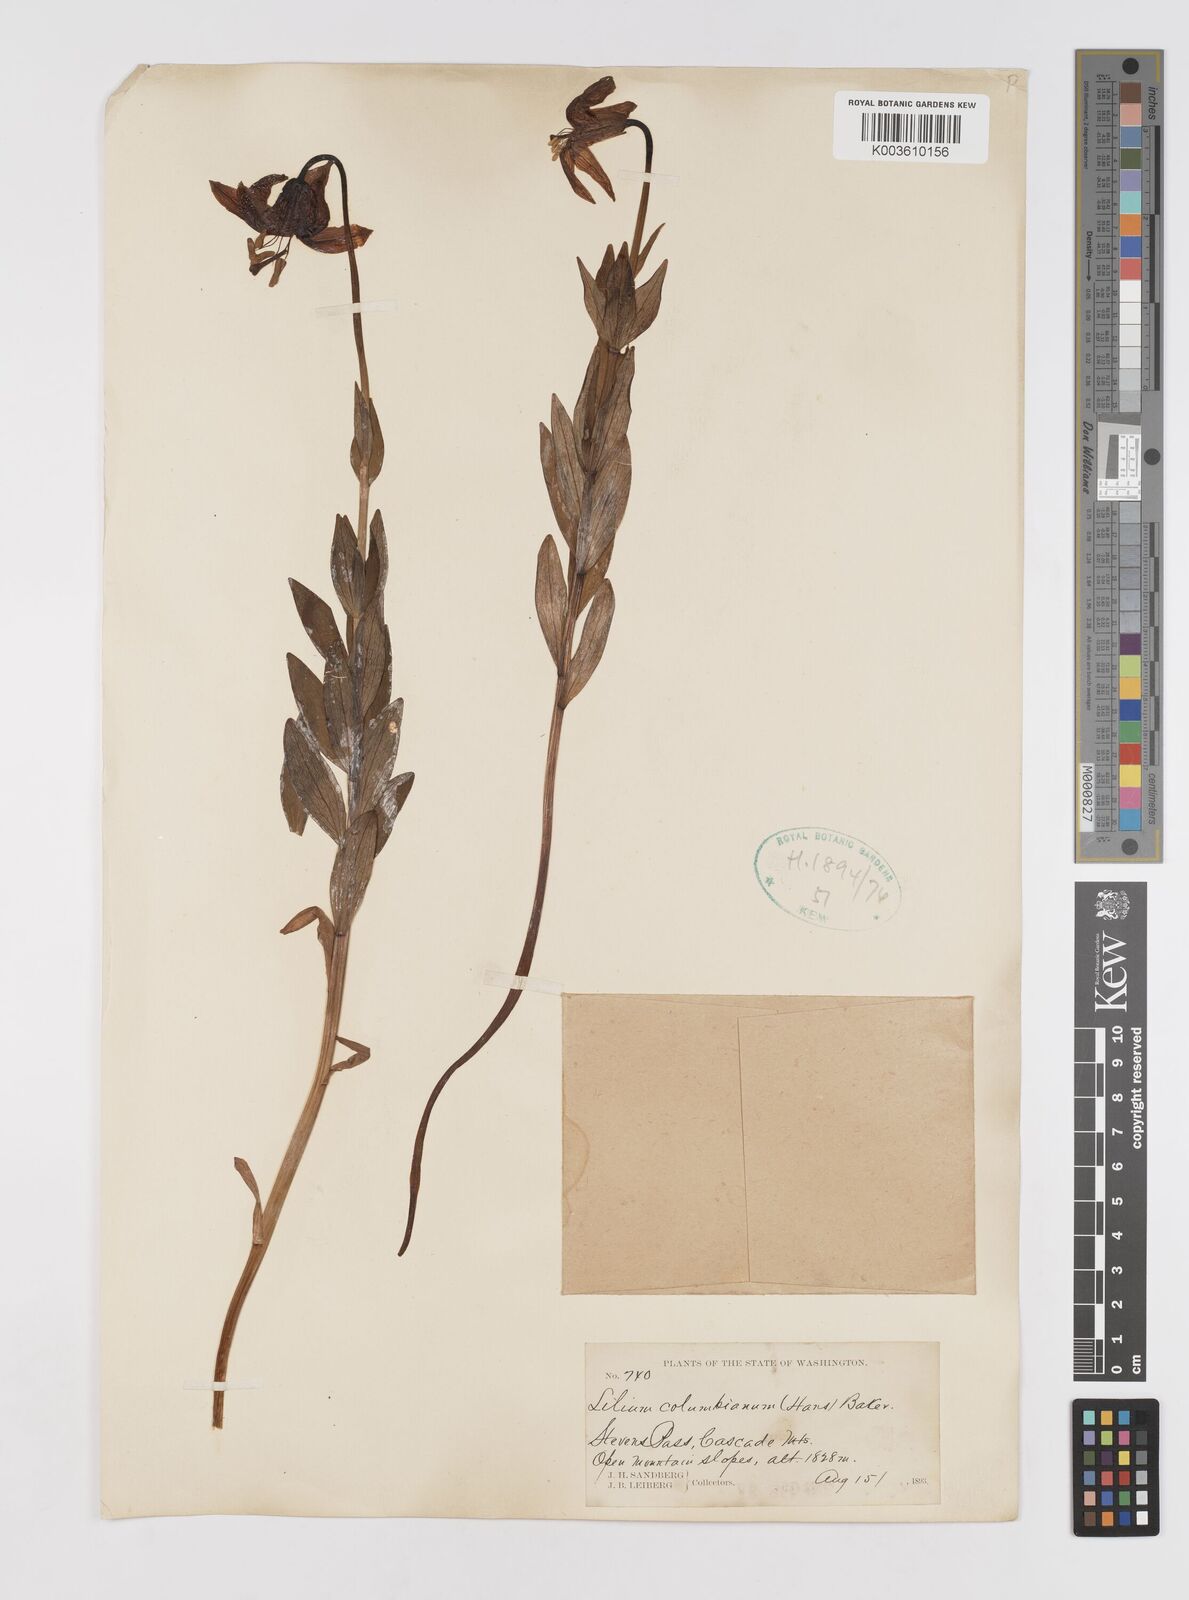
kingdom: Plantae
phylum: Tracheophyta
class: Liliopsida
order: Liliales
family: Liliaceae
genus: Lilium
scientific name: Lilium columbianum
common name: Columbia lily
